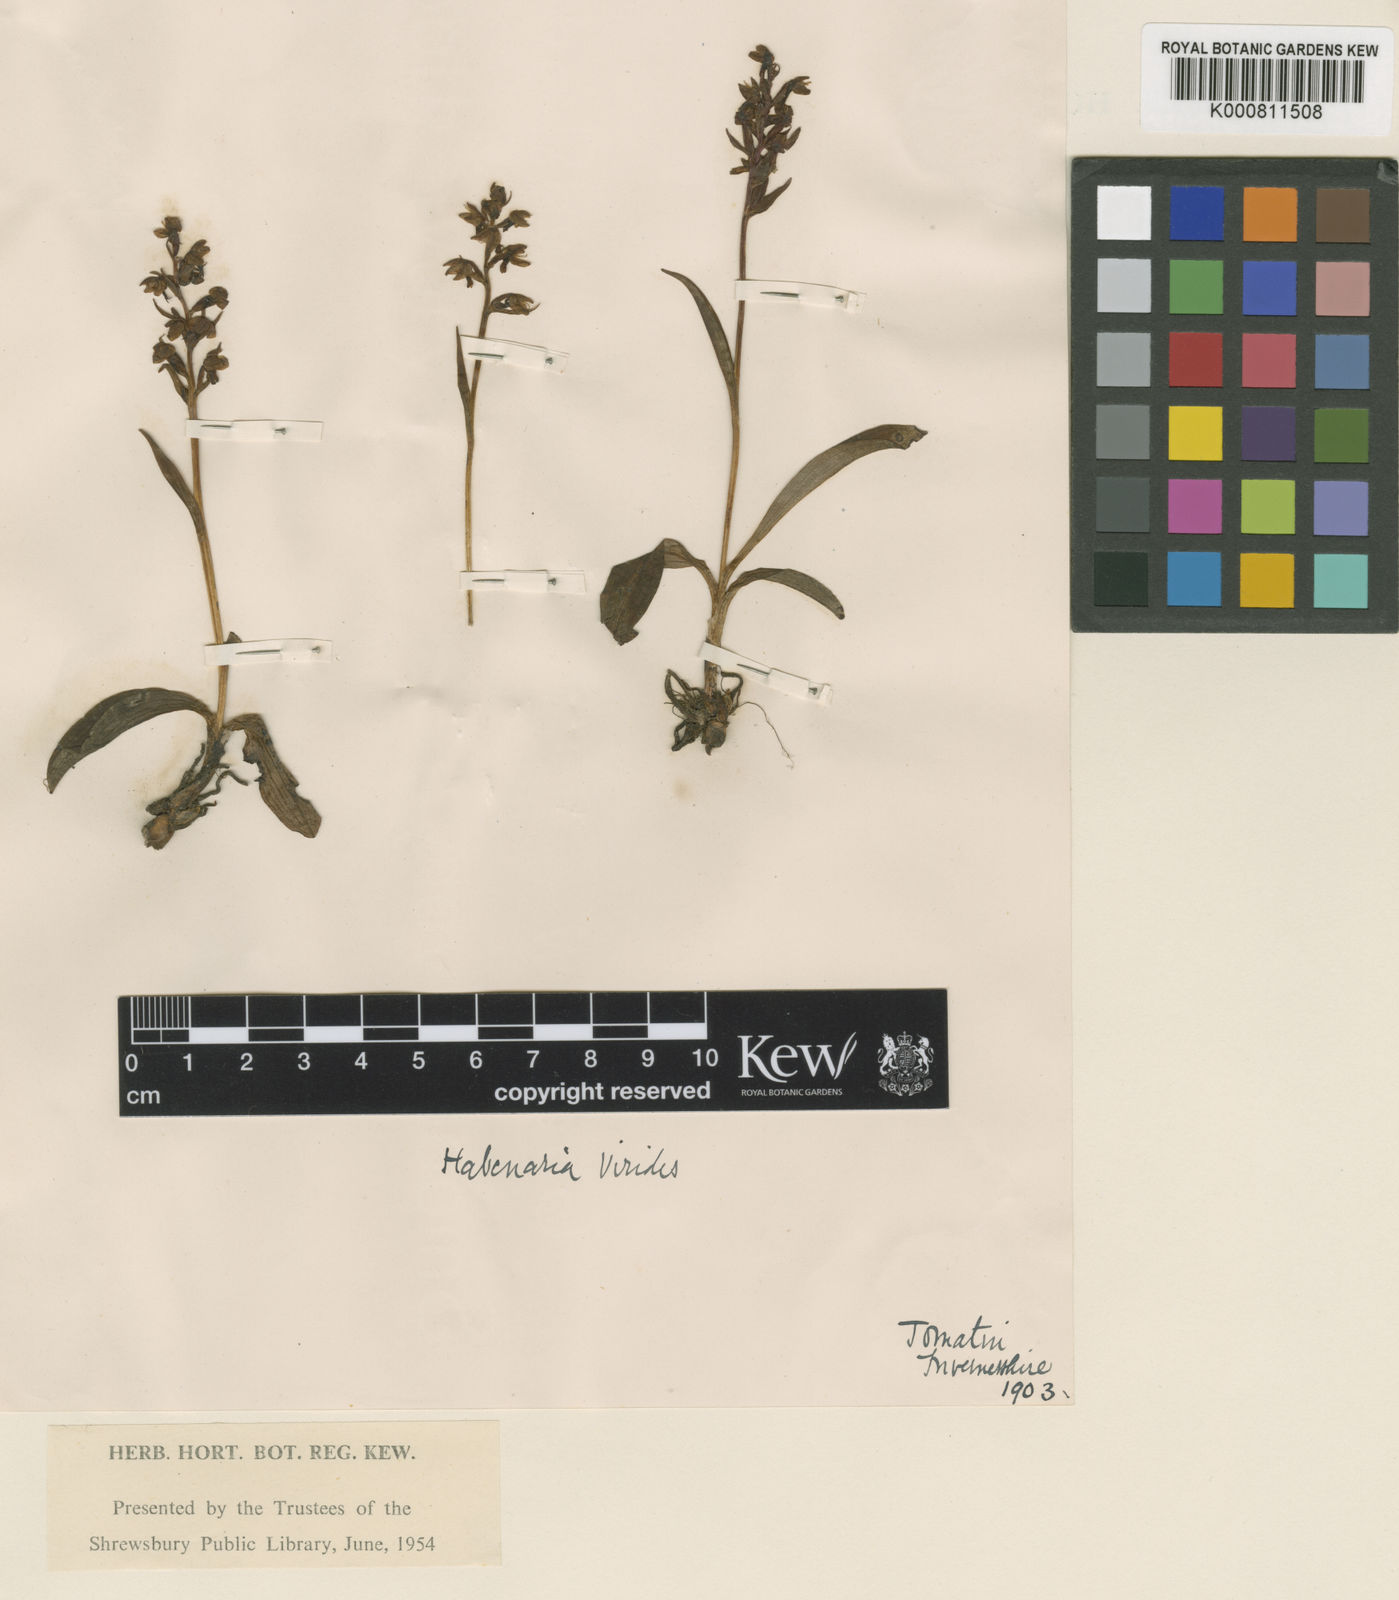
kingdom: Plantae
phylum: Tracheophyta
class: Liliopsida
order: Asparagales
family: Orchidaceae
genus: Dactylorhiza
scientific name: Dactylorhiza viridis
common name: Longbract frog orchid
